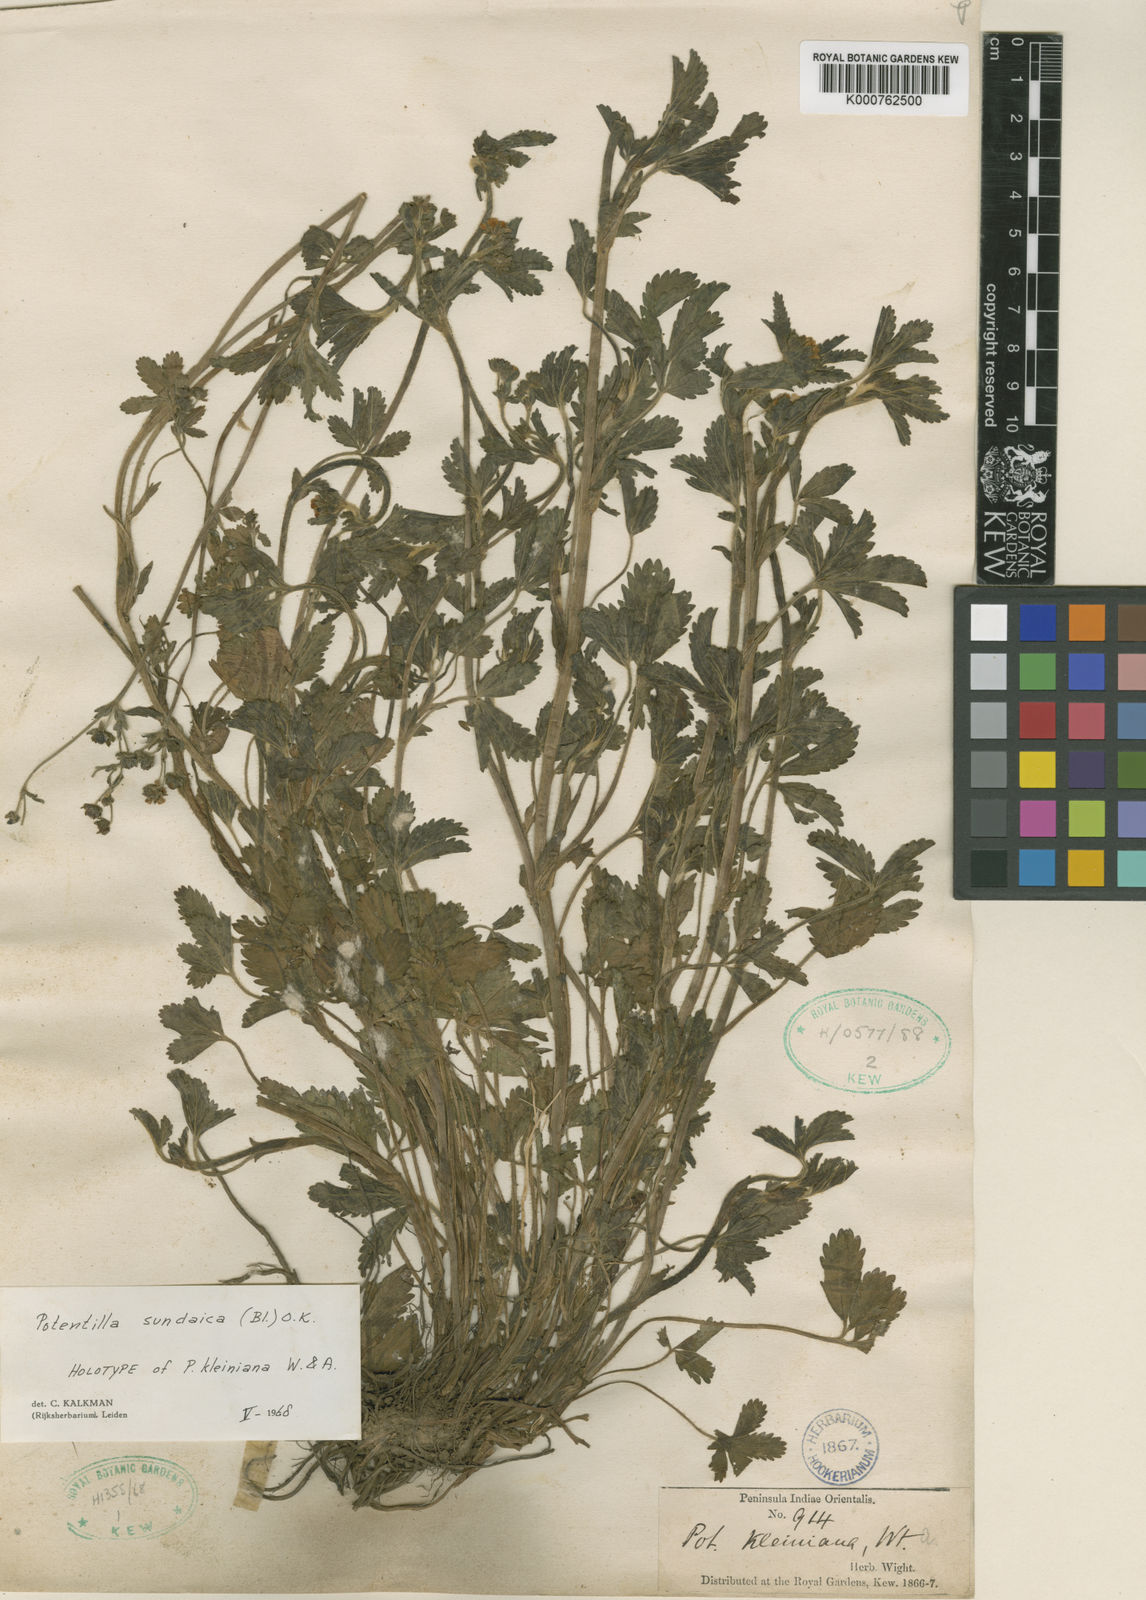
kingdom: Plantae
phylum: Tracheophyta
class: Magnoliopsida
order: Rosales
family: Rosaceae
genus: Potentilla
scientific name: Potentilla
